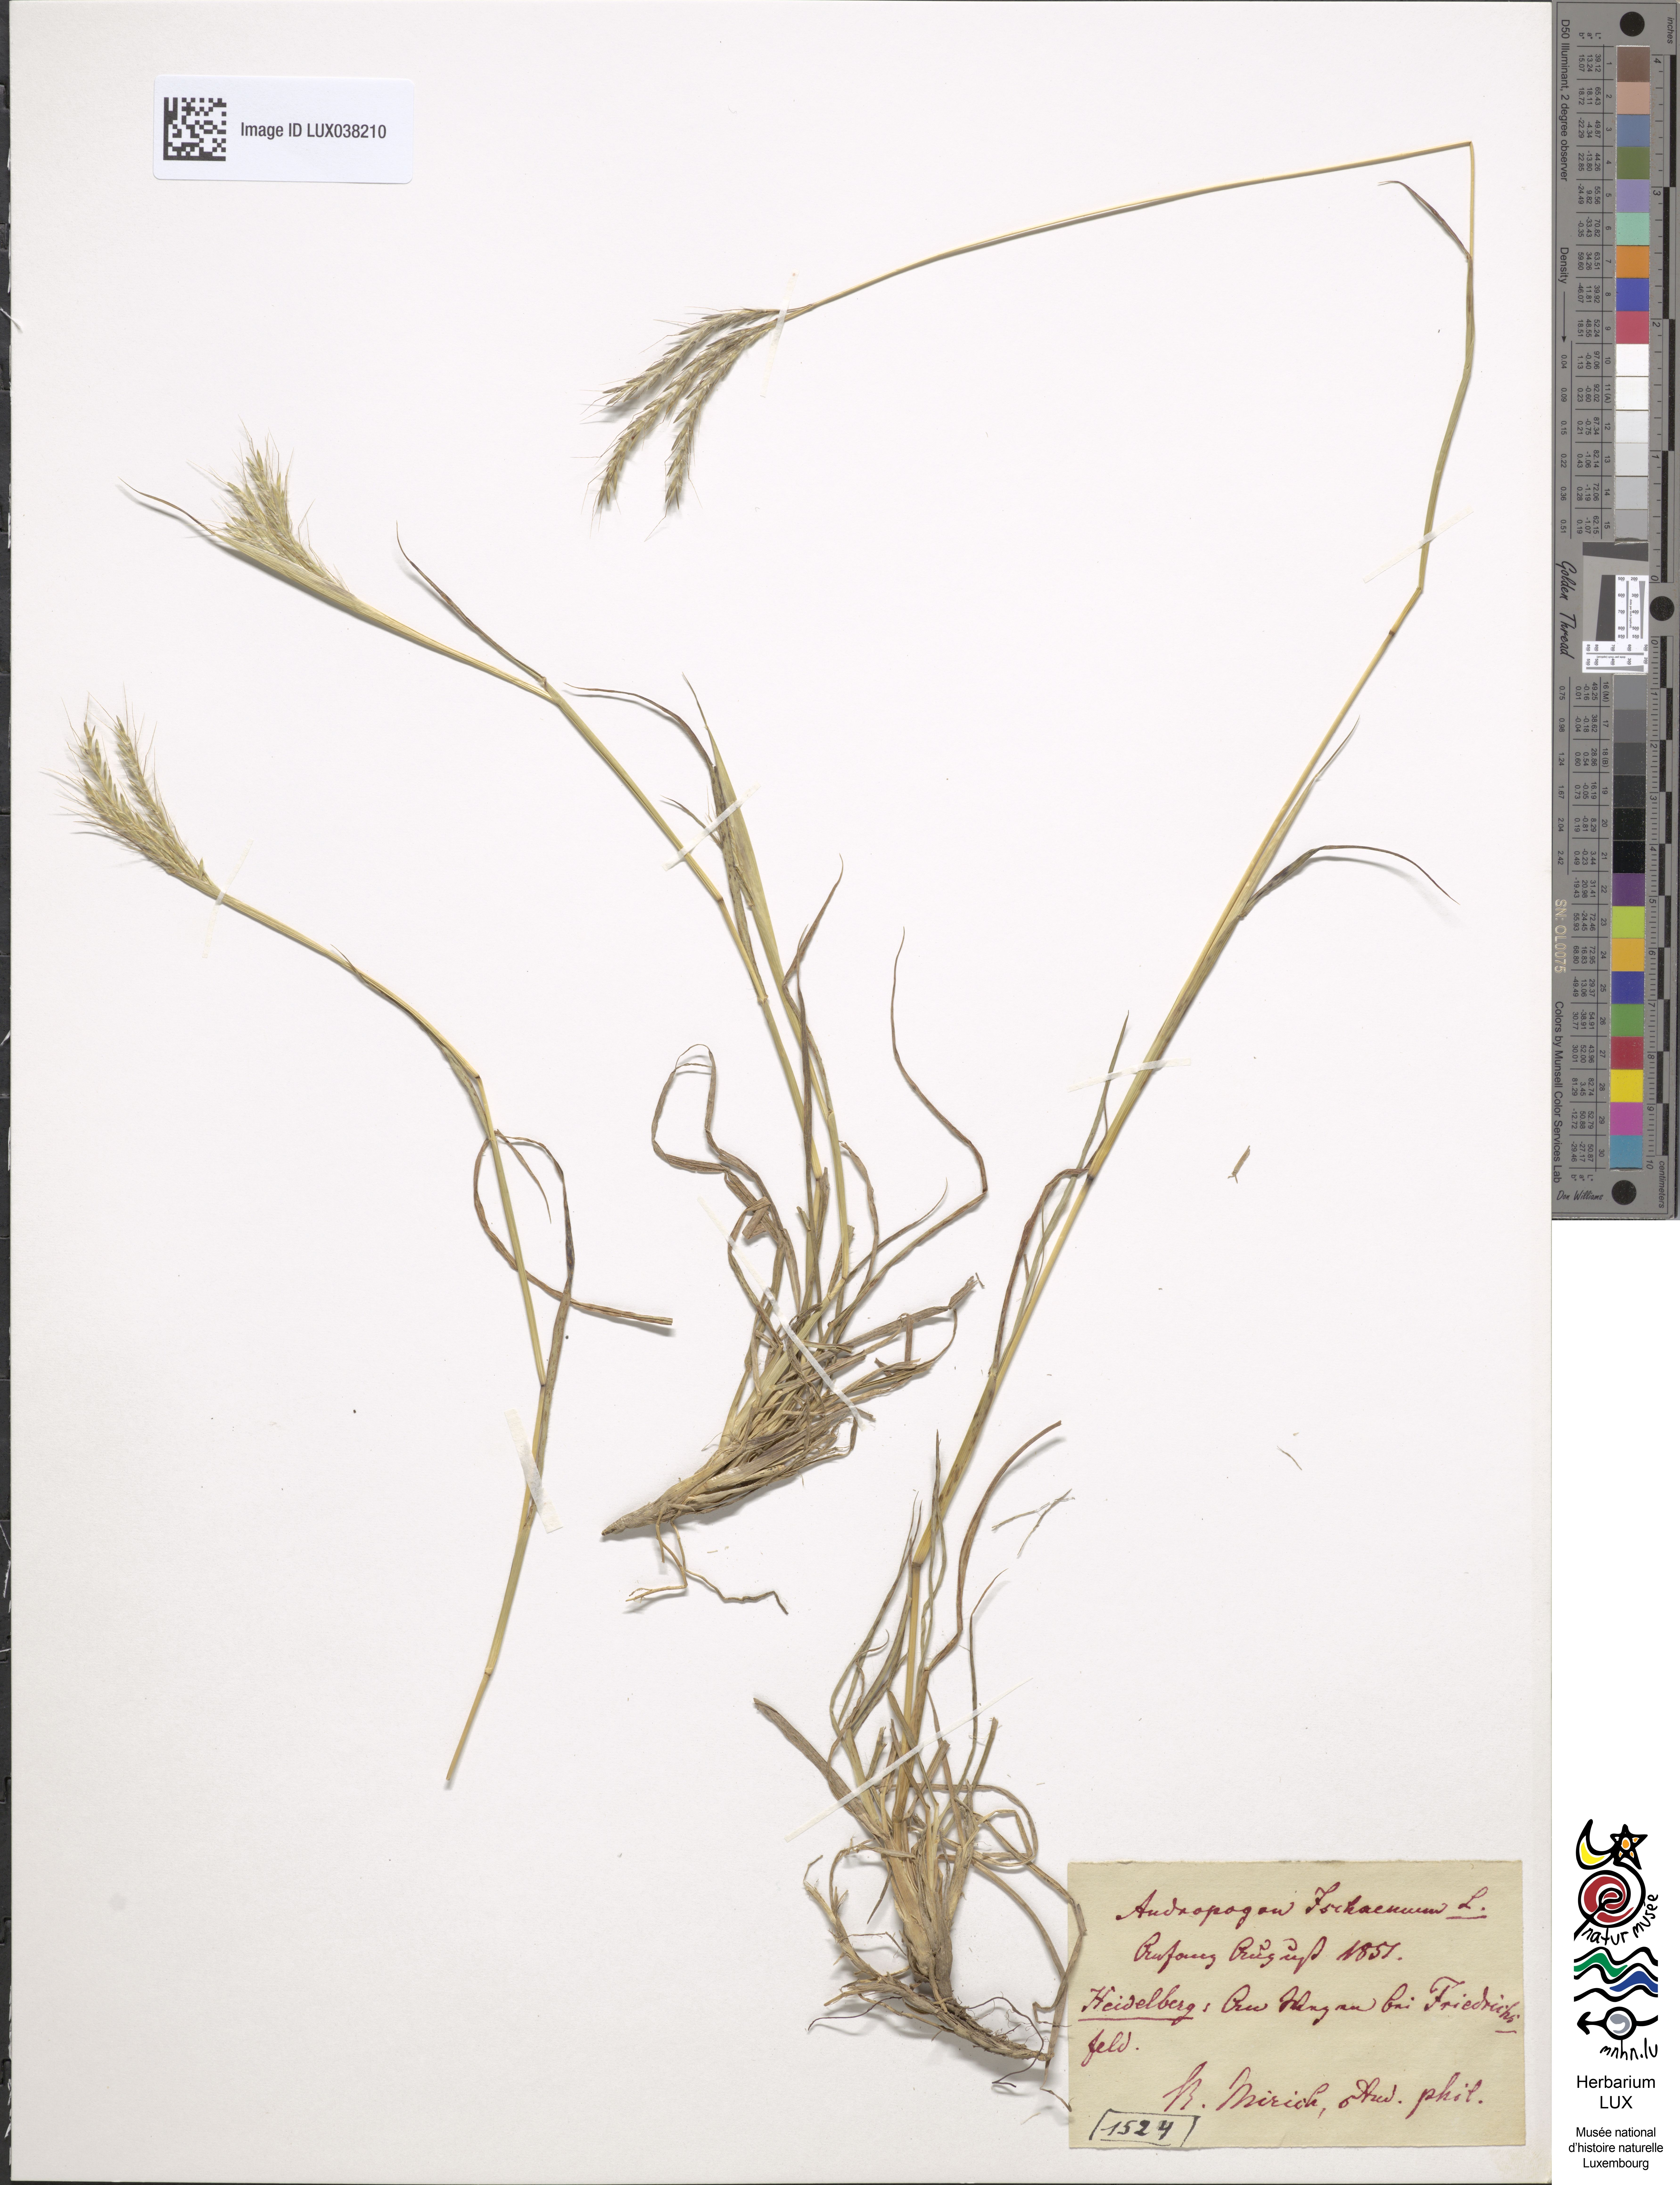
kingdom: Plantae
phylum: Tracheophyta
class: Liliopsida
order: Poales
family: Poaceae
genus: Bothriochloa
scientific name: Bothriochloa ischaemum
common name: Yellow bluestem
